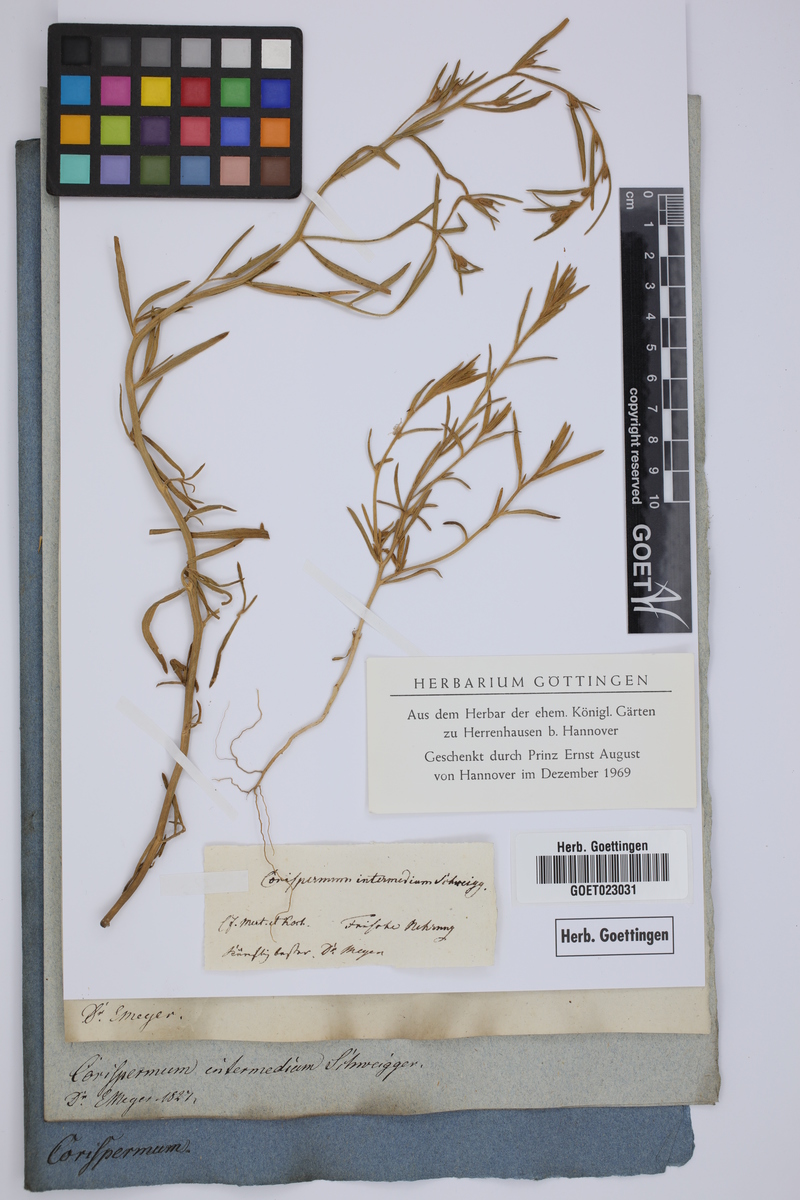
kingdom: Plantae
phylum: Tracheophyta
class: Magnoliopsida
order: Caryophyllales
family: Amaranthaceae
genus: Corispermum
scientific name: Corispermum intermedium
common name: Hyssop-leaved tickseed
